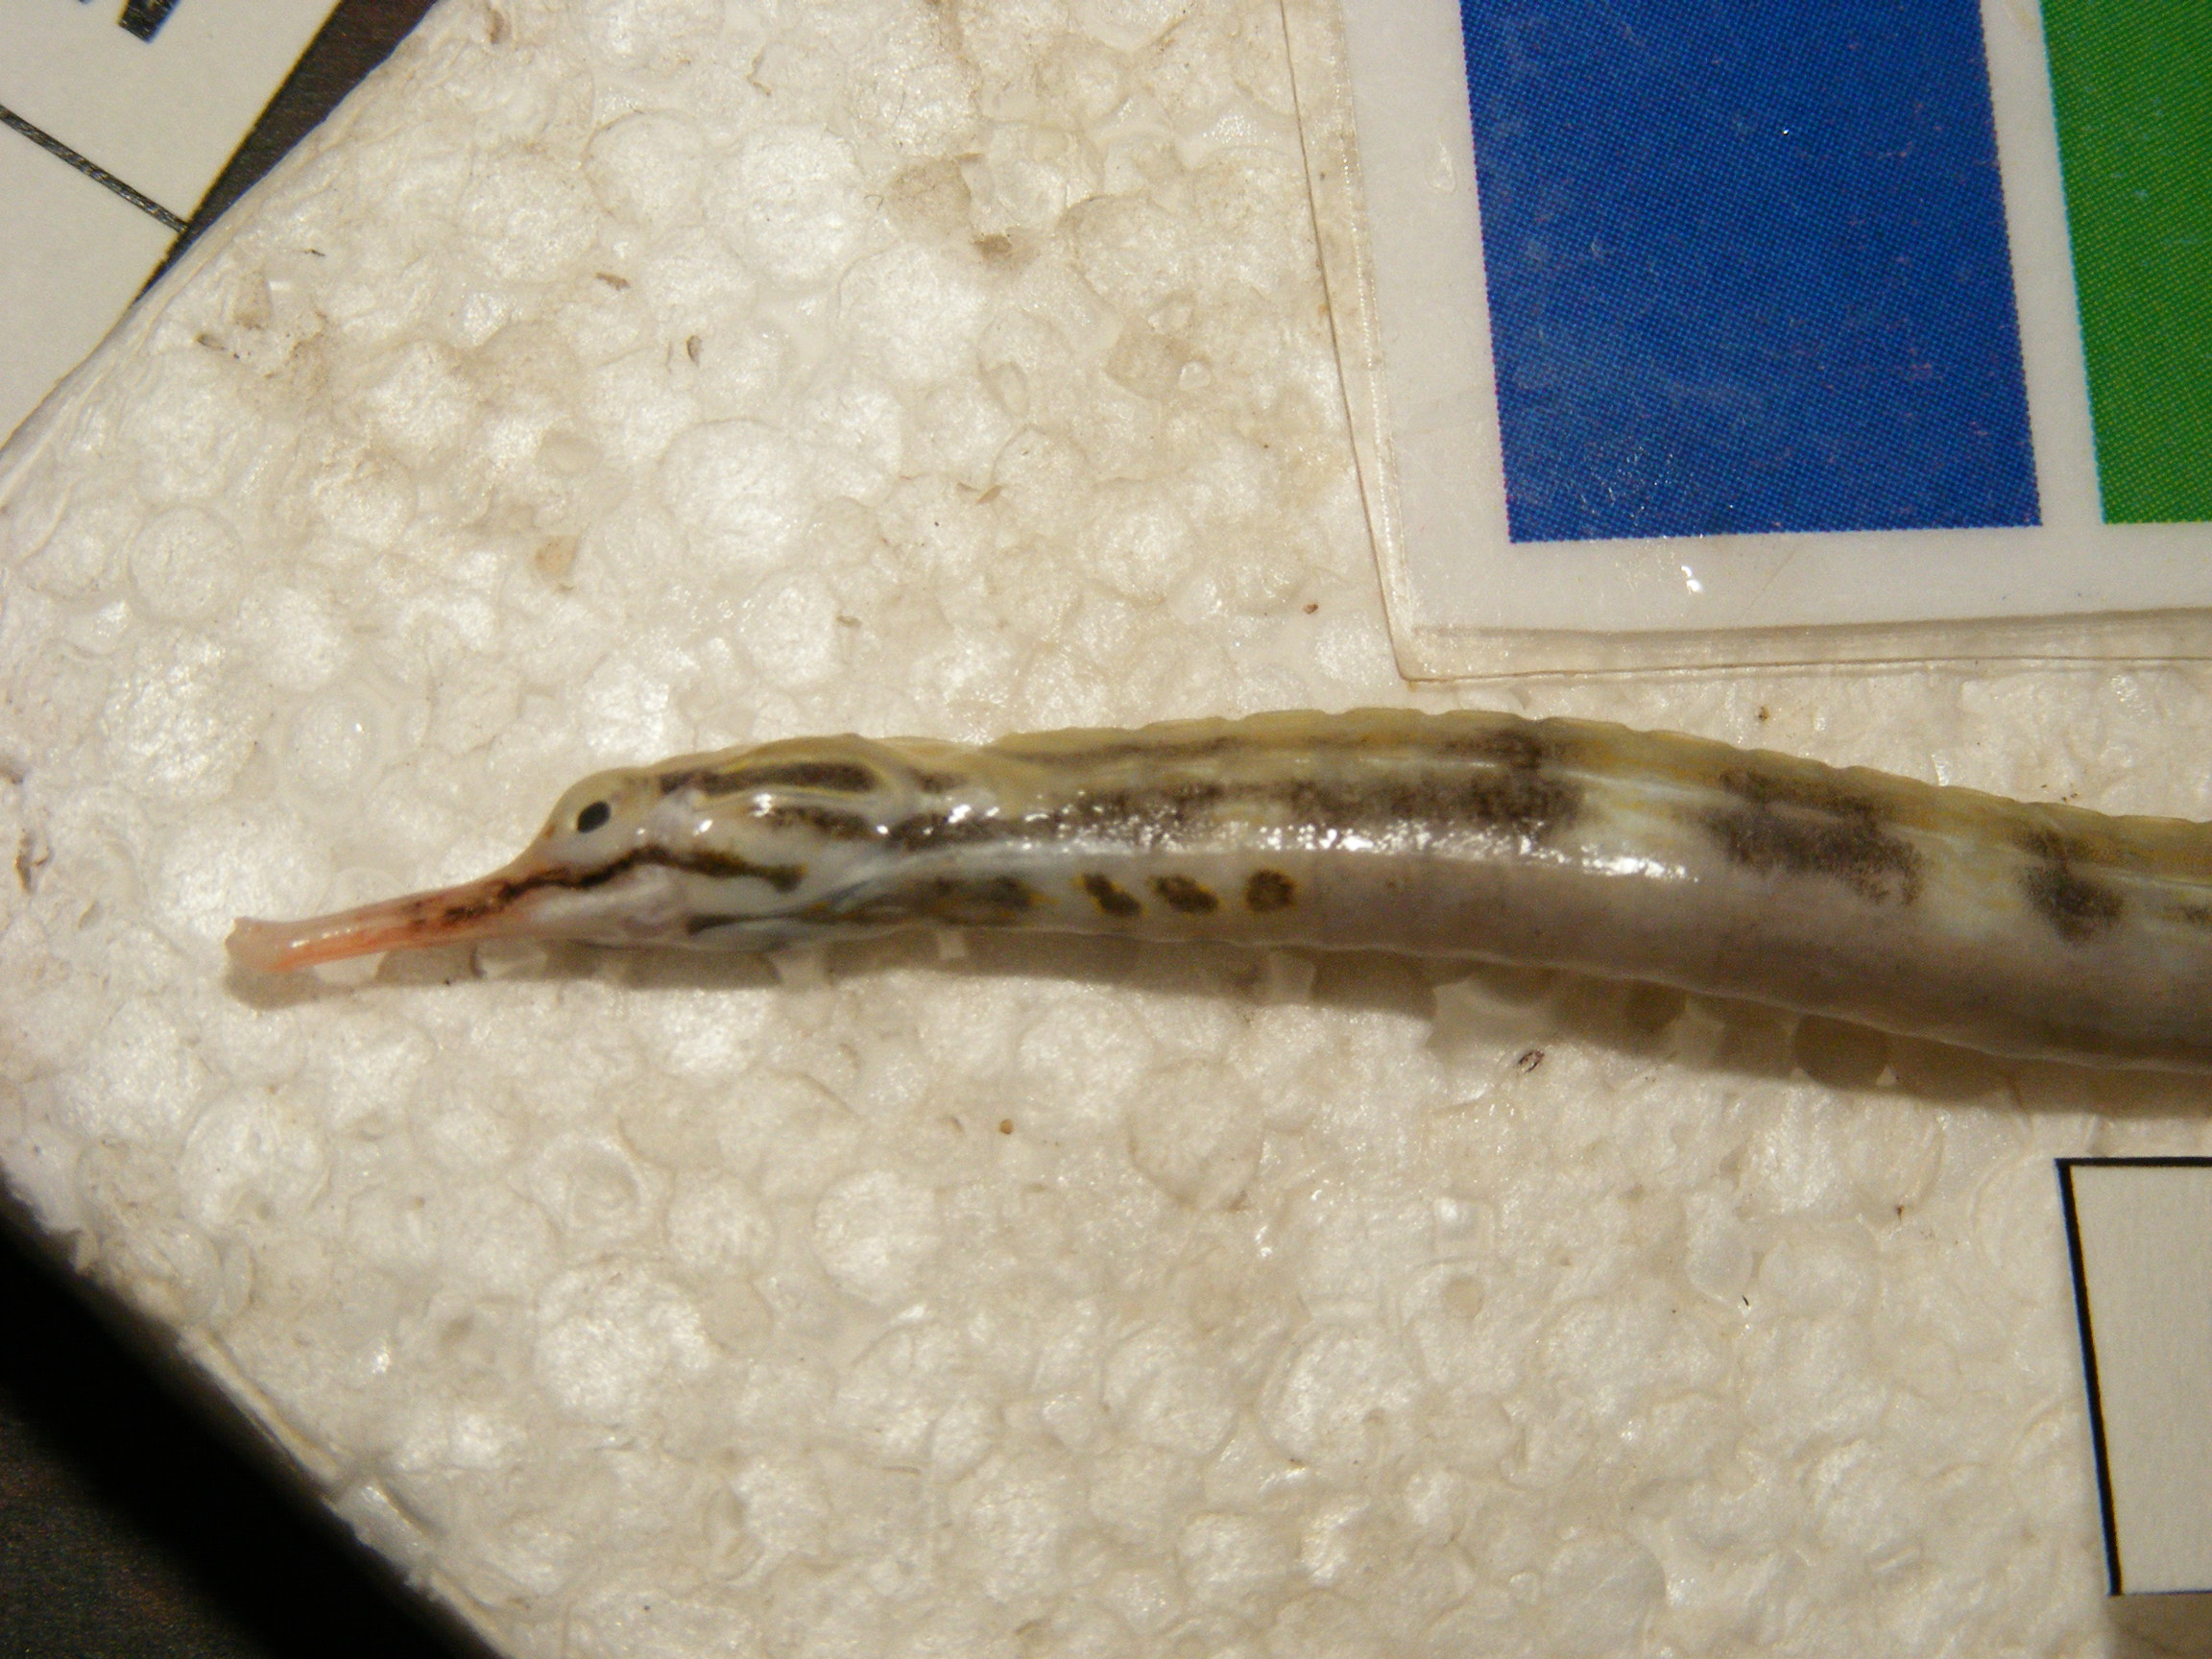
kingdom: Animalia
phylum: Chordata
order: Syngnathiformes
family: Syngnathidae
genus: Corythoichthys
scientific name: Corythoichthys haematopterus
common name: Bloodspot pipefish
